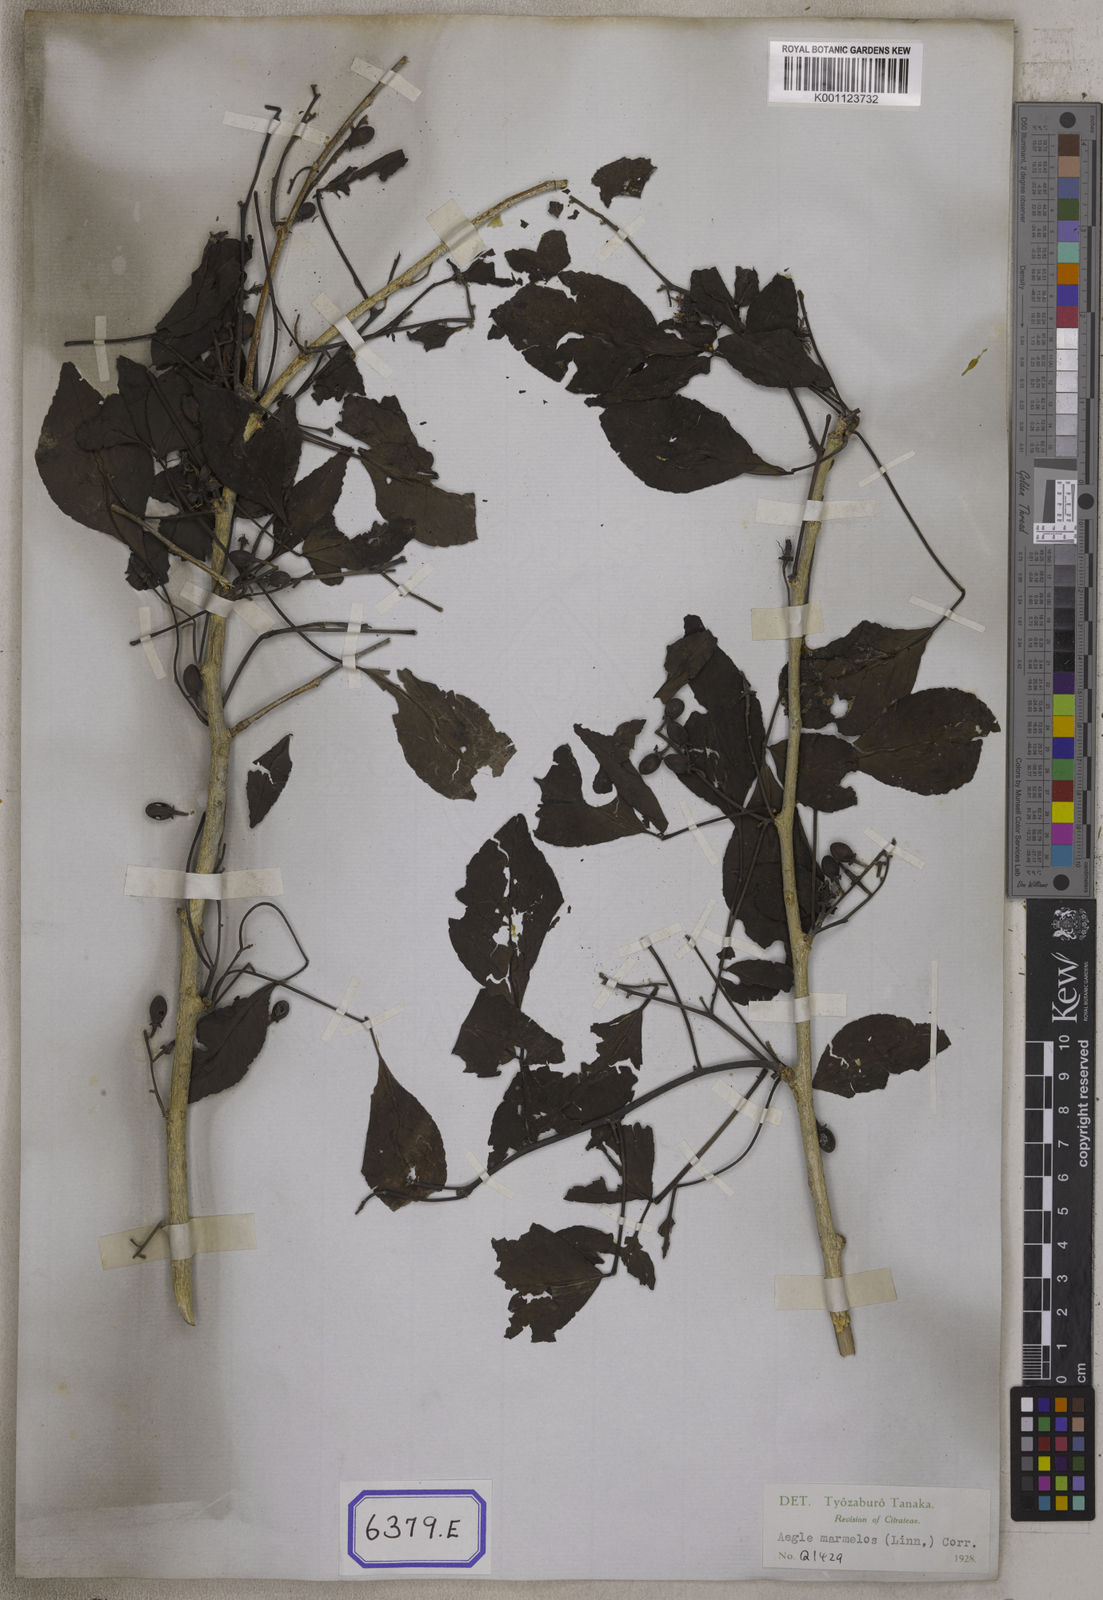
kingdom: Plantae
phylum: Tracheophyta
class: Magnoliopsida
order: Sapindales
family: Rutaceae
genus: Aegle
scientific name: Aegle marmelos
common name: Bael
